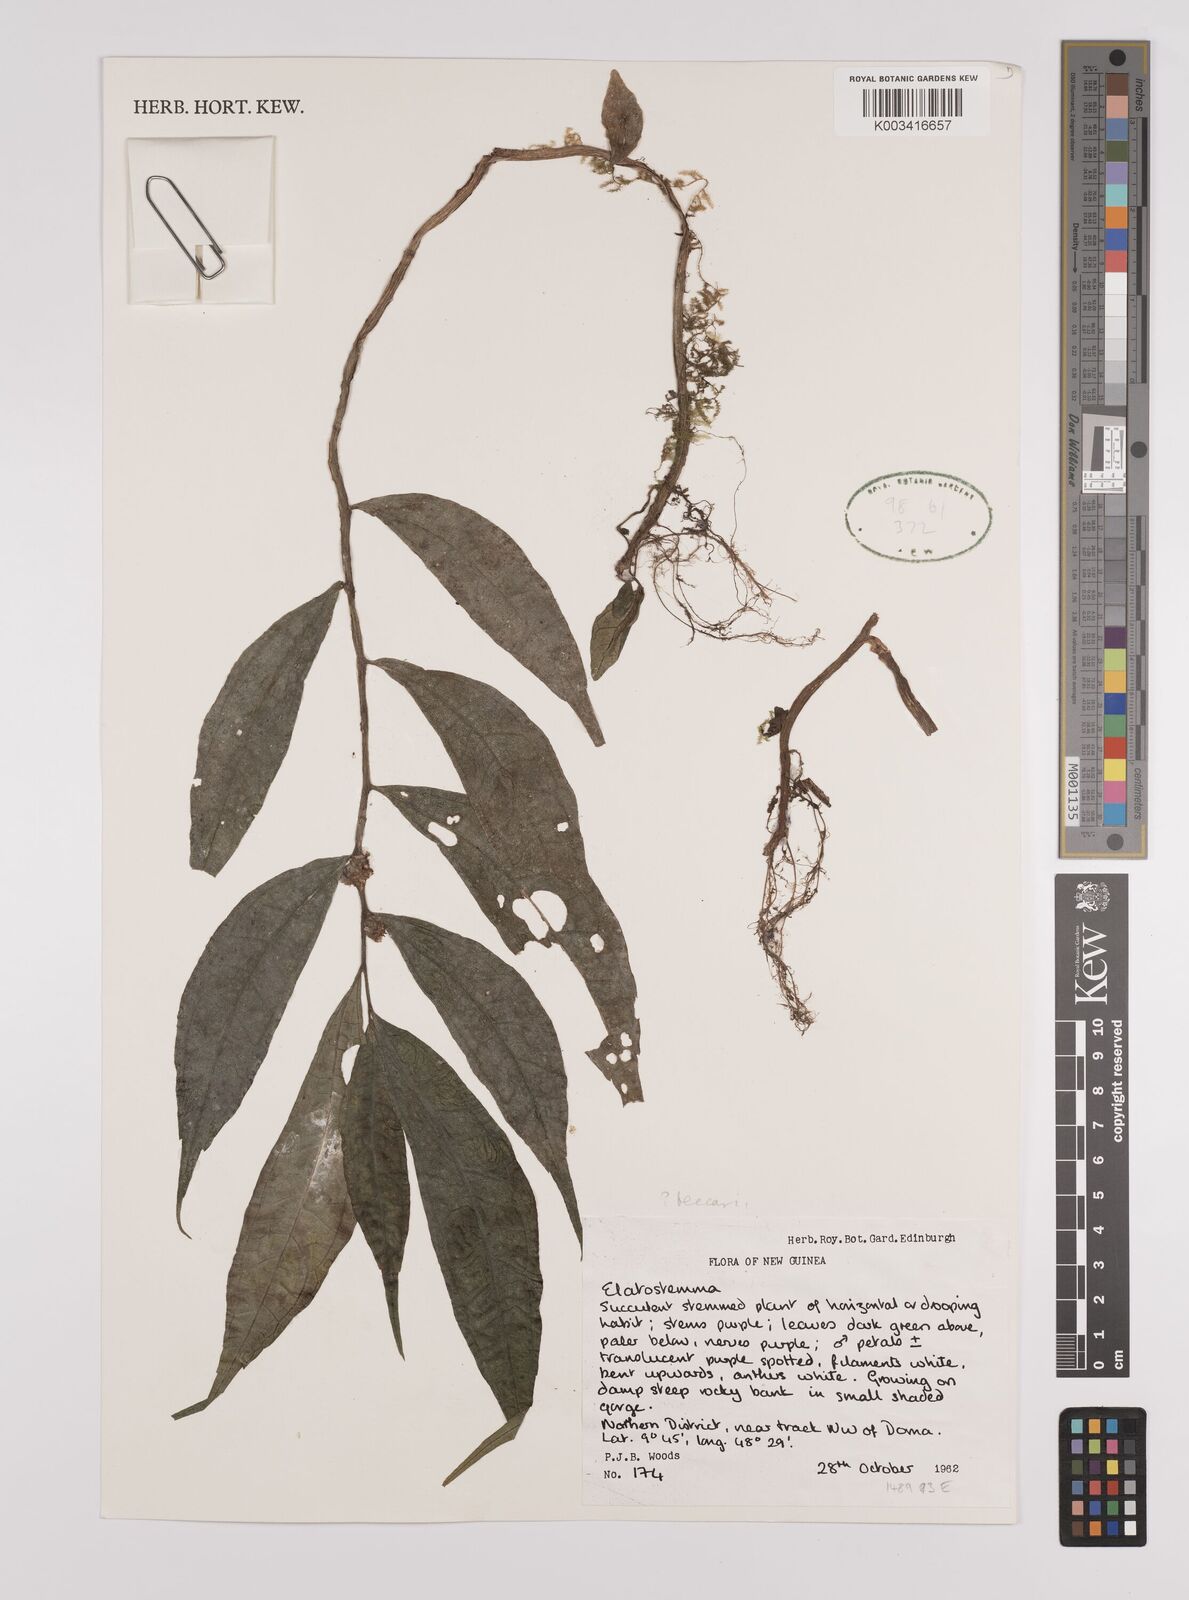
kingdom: Plantae
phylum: Tracheophyta
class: Magnoliopsida
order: Rosales
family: Urticaceae
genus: Elatostema
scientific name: Elatostema
